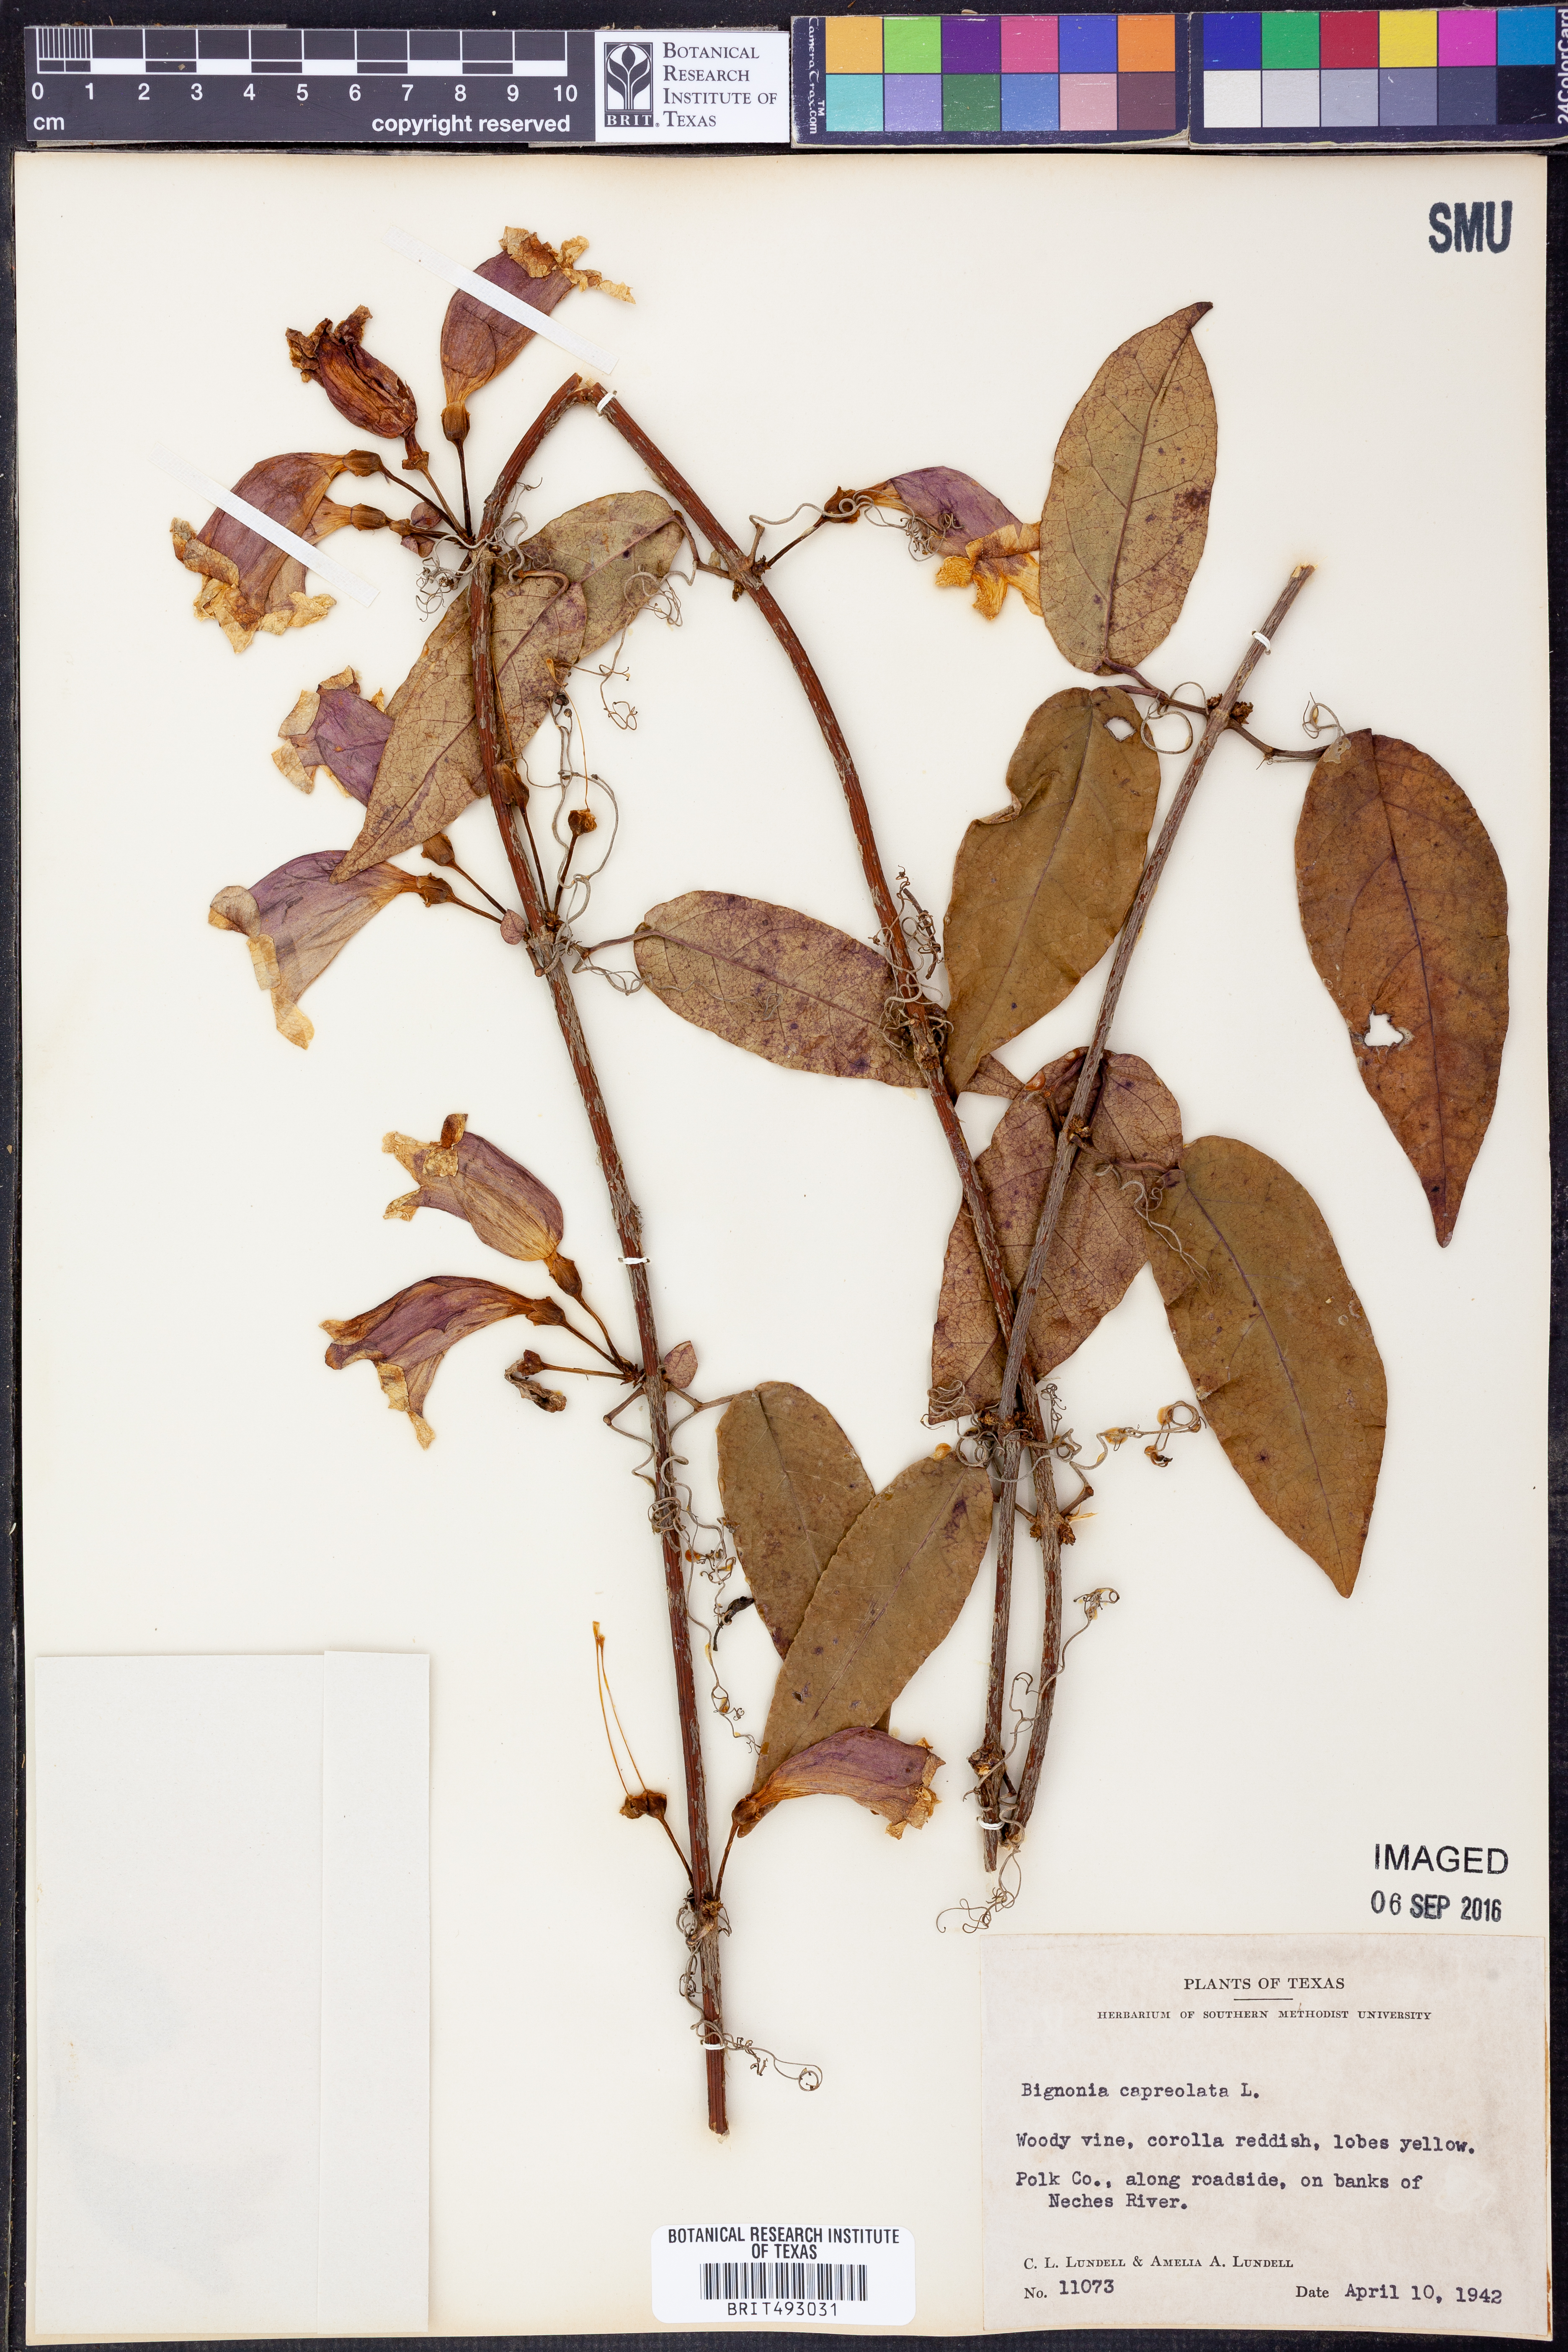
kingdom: Plantae
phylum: Tracheophyta
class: Magnoliopsida
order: Lamiales
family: Bignoniaceae
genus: Bignonia
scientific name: Bignonia capreolata
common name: Crossvine
